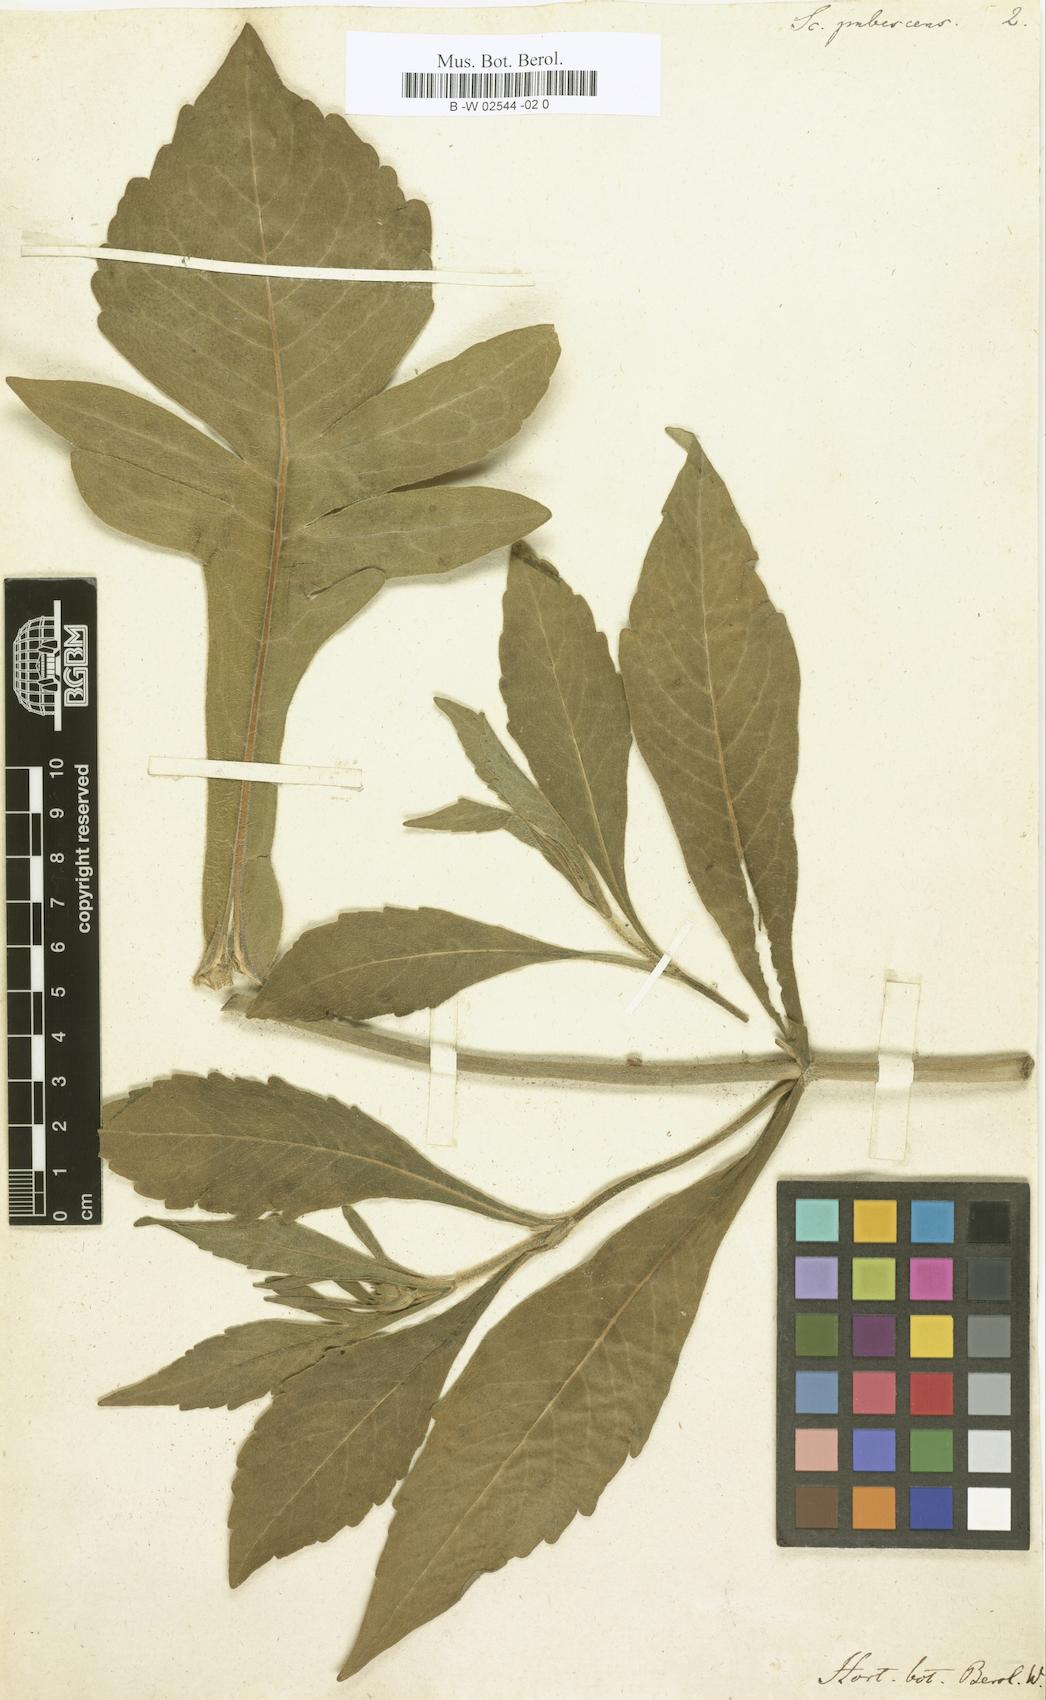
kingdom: Plantae
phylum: Tracheophyta
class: Magnoliopsida
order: Dipsacales
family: Caprifoliaceae
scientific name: Caprifoliaceae
